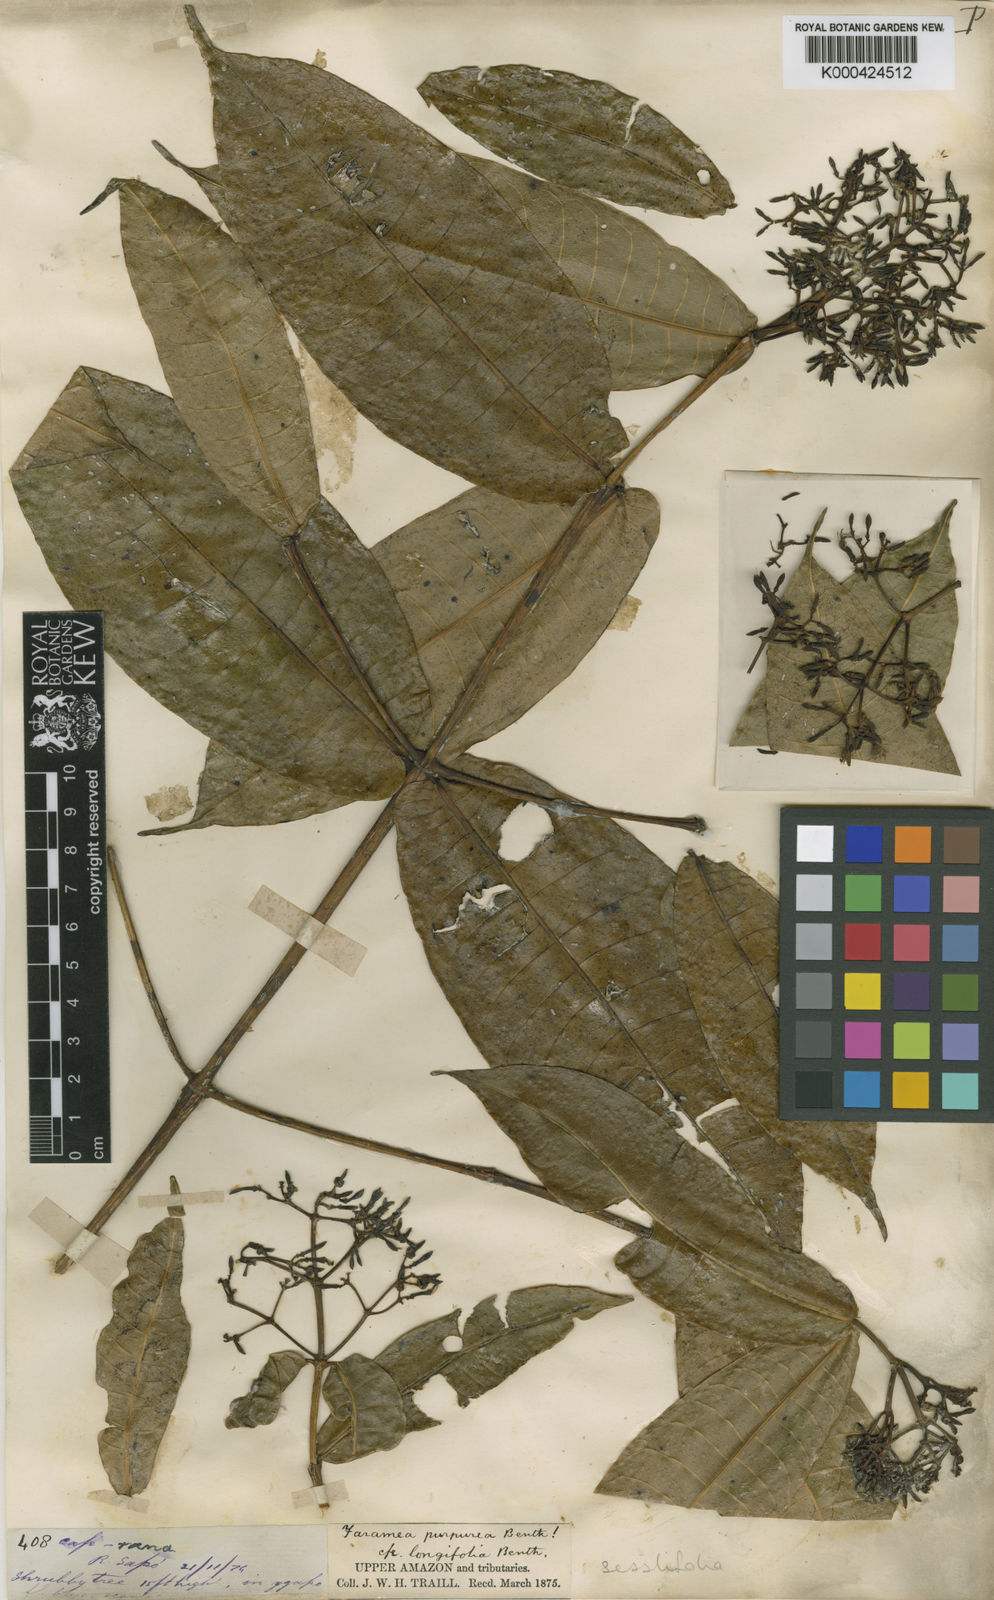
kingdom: Plantae
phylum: Tracheophyta
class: Magnoliopsida
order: Gentianales
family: Rubiaceae
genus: Ixora
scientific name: Ixora
